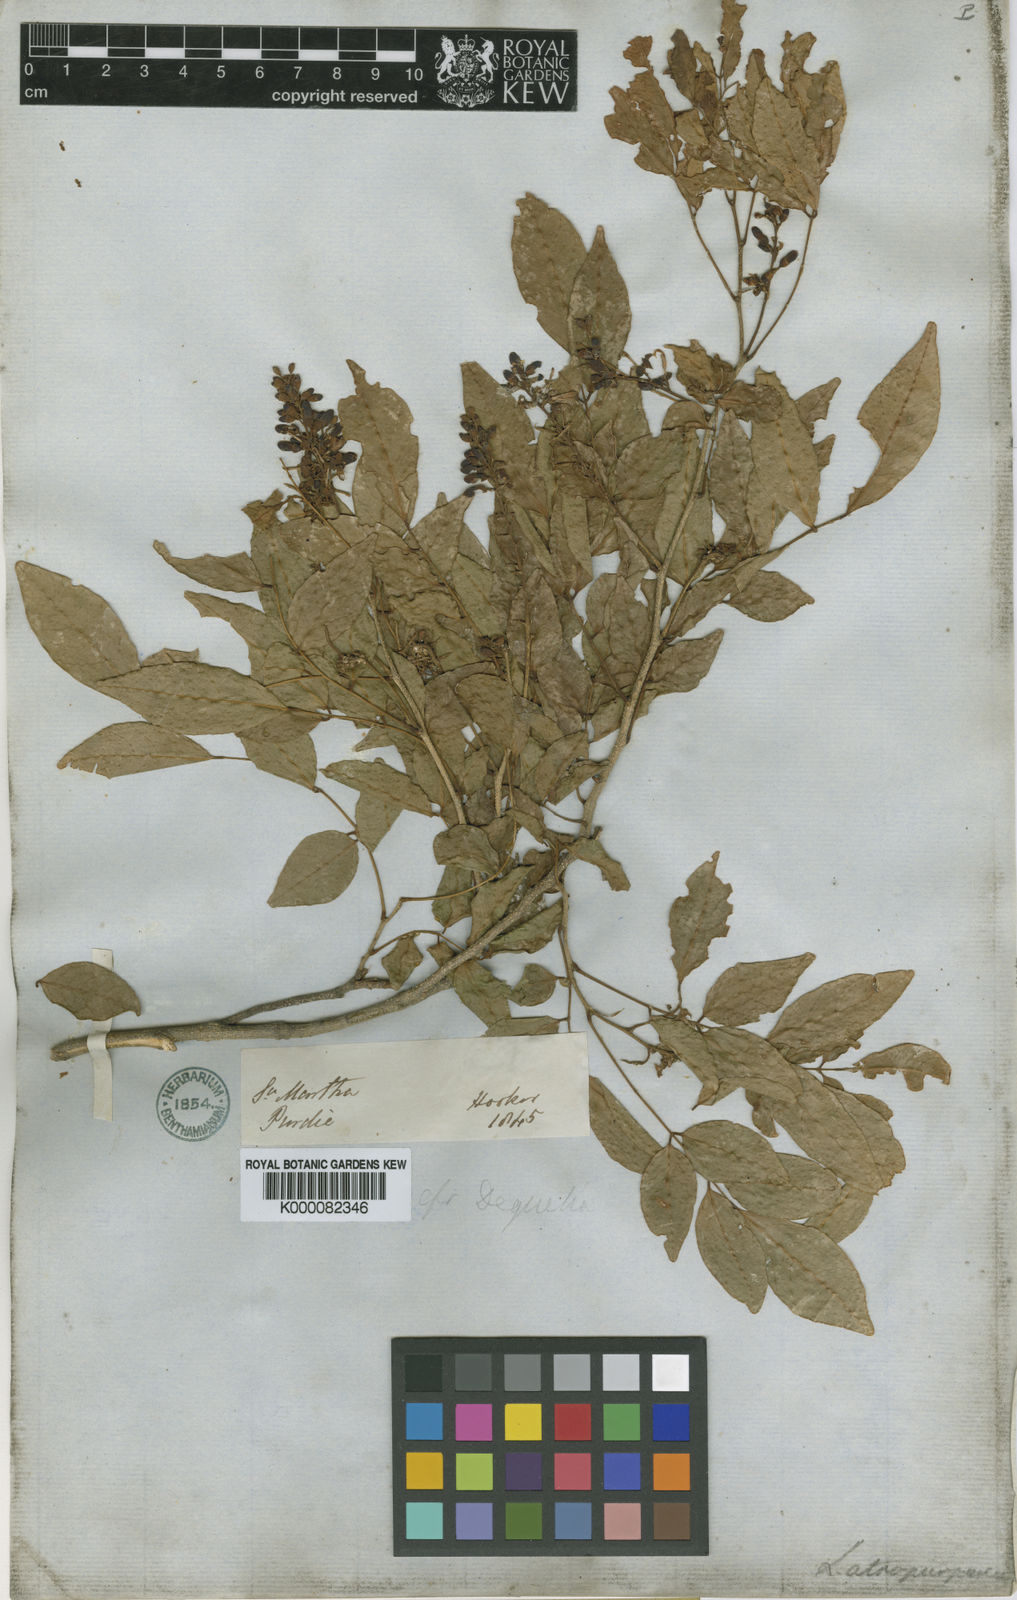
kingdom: Plantae
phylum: Tracheophyta
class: Magnoliopsida
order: Fabales
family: Fabaceae
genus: Lonchocarpus
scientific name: Lonchocarpus atropurpureus
